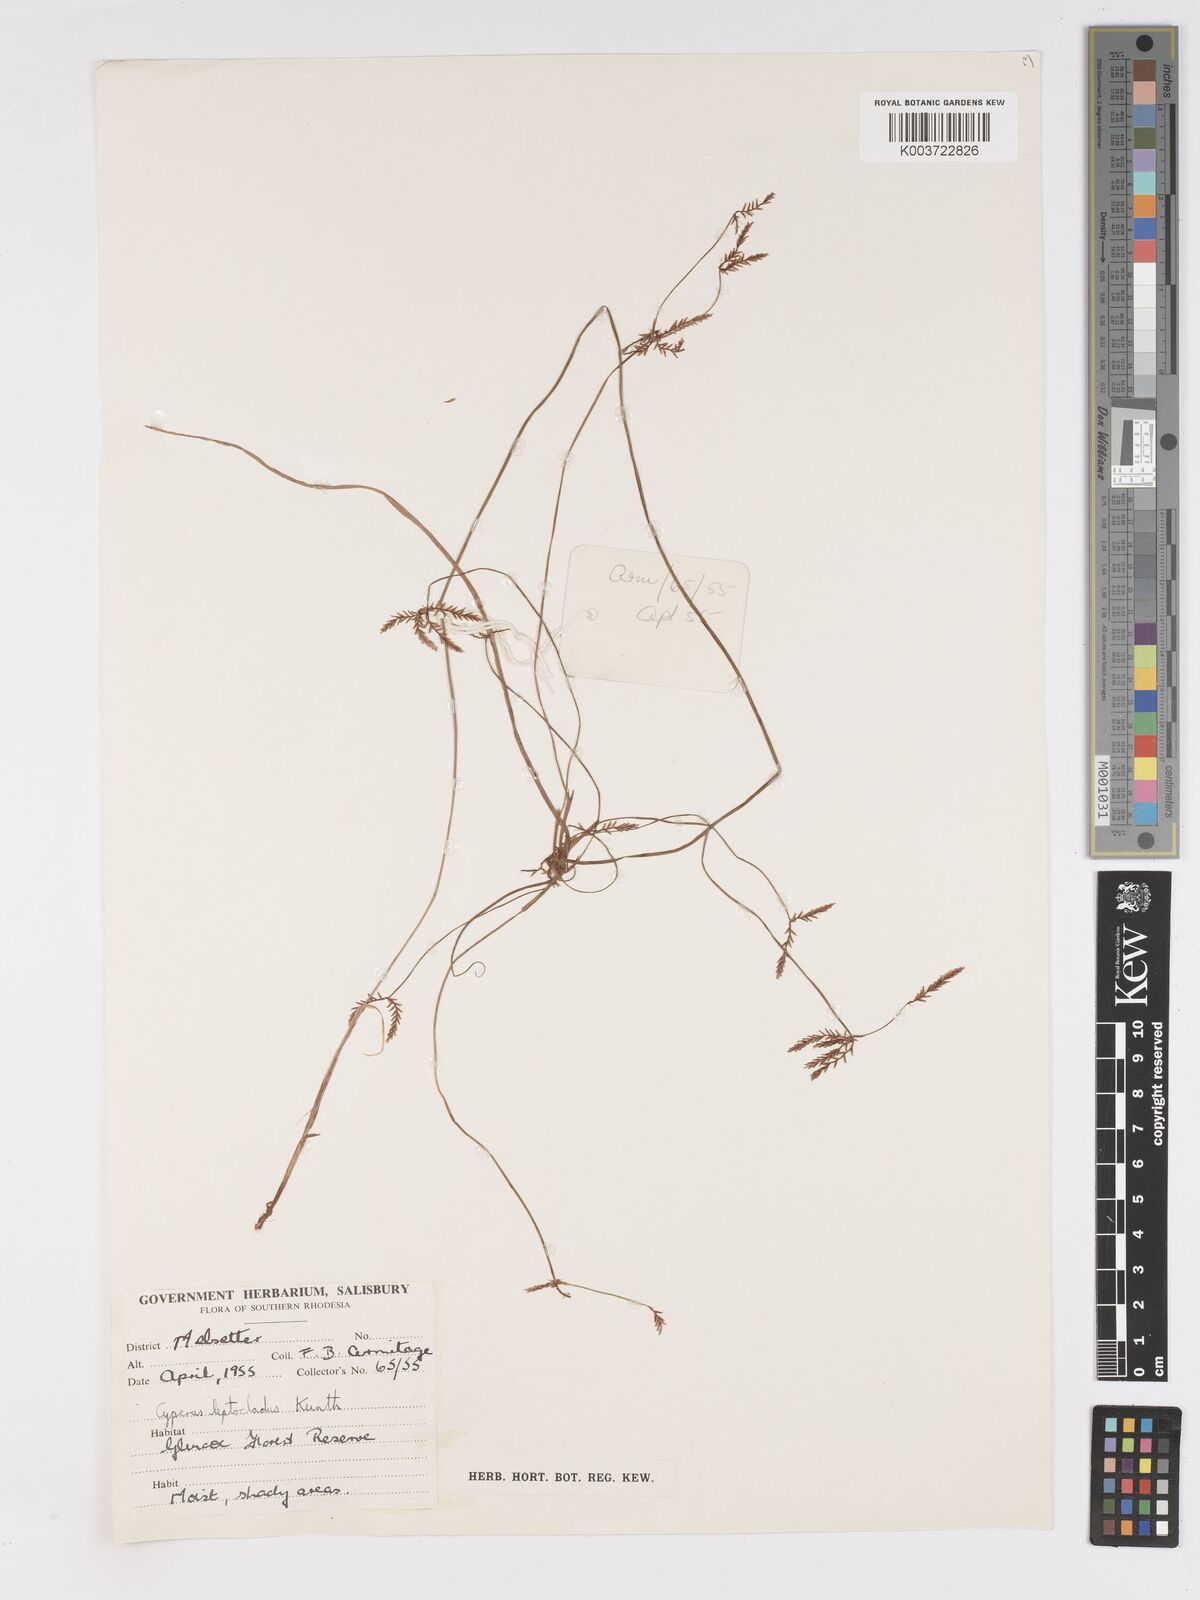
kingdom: Plantae
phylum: Tracheophyta
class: Liliopsida
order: Poales
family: Cyperaceae
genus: Cyperus
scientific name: Cyperus glaucophyllus
